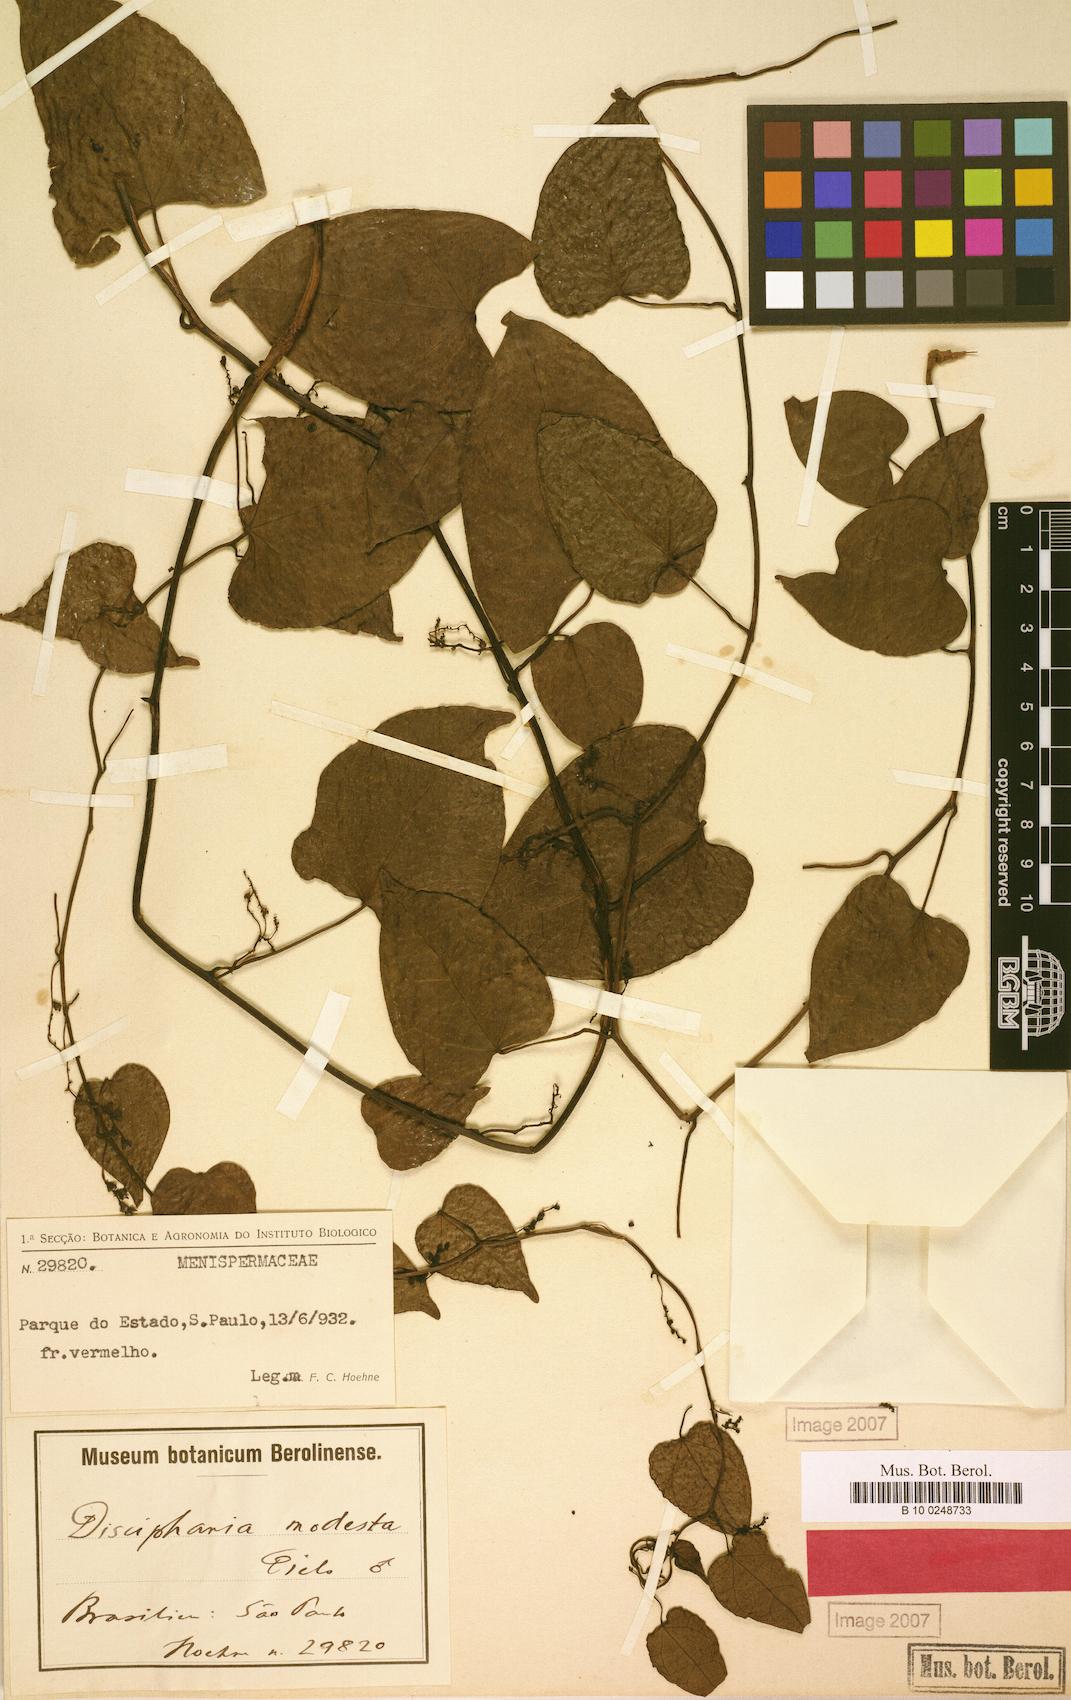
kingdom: Plantae
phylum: Tracheophyta
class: Magnoliopsida
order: Ranunculales
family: Menispermaceae
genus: Disciphania
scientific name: Disciphania modesta
